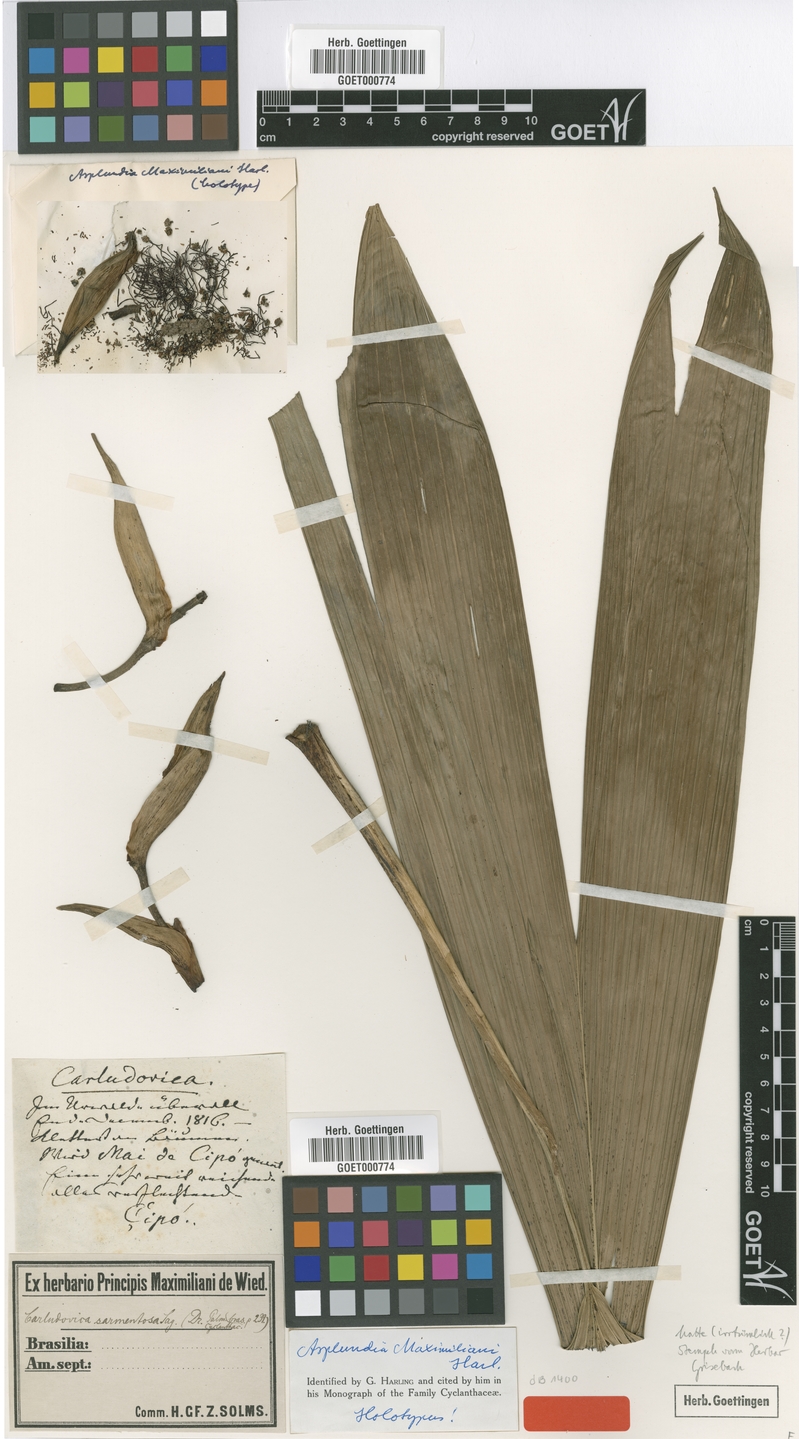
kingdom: Plantae
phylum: Tracheophyta
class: Liliopsida
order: Pandanales
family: Cyclanthaceae
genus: Asplundia
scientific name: Asplundia maximiliani
